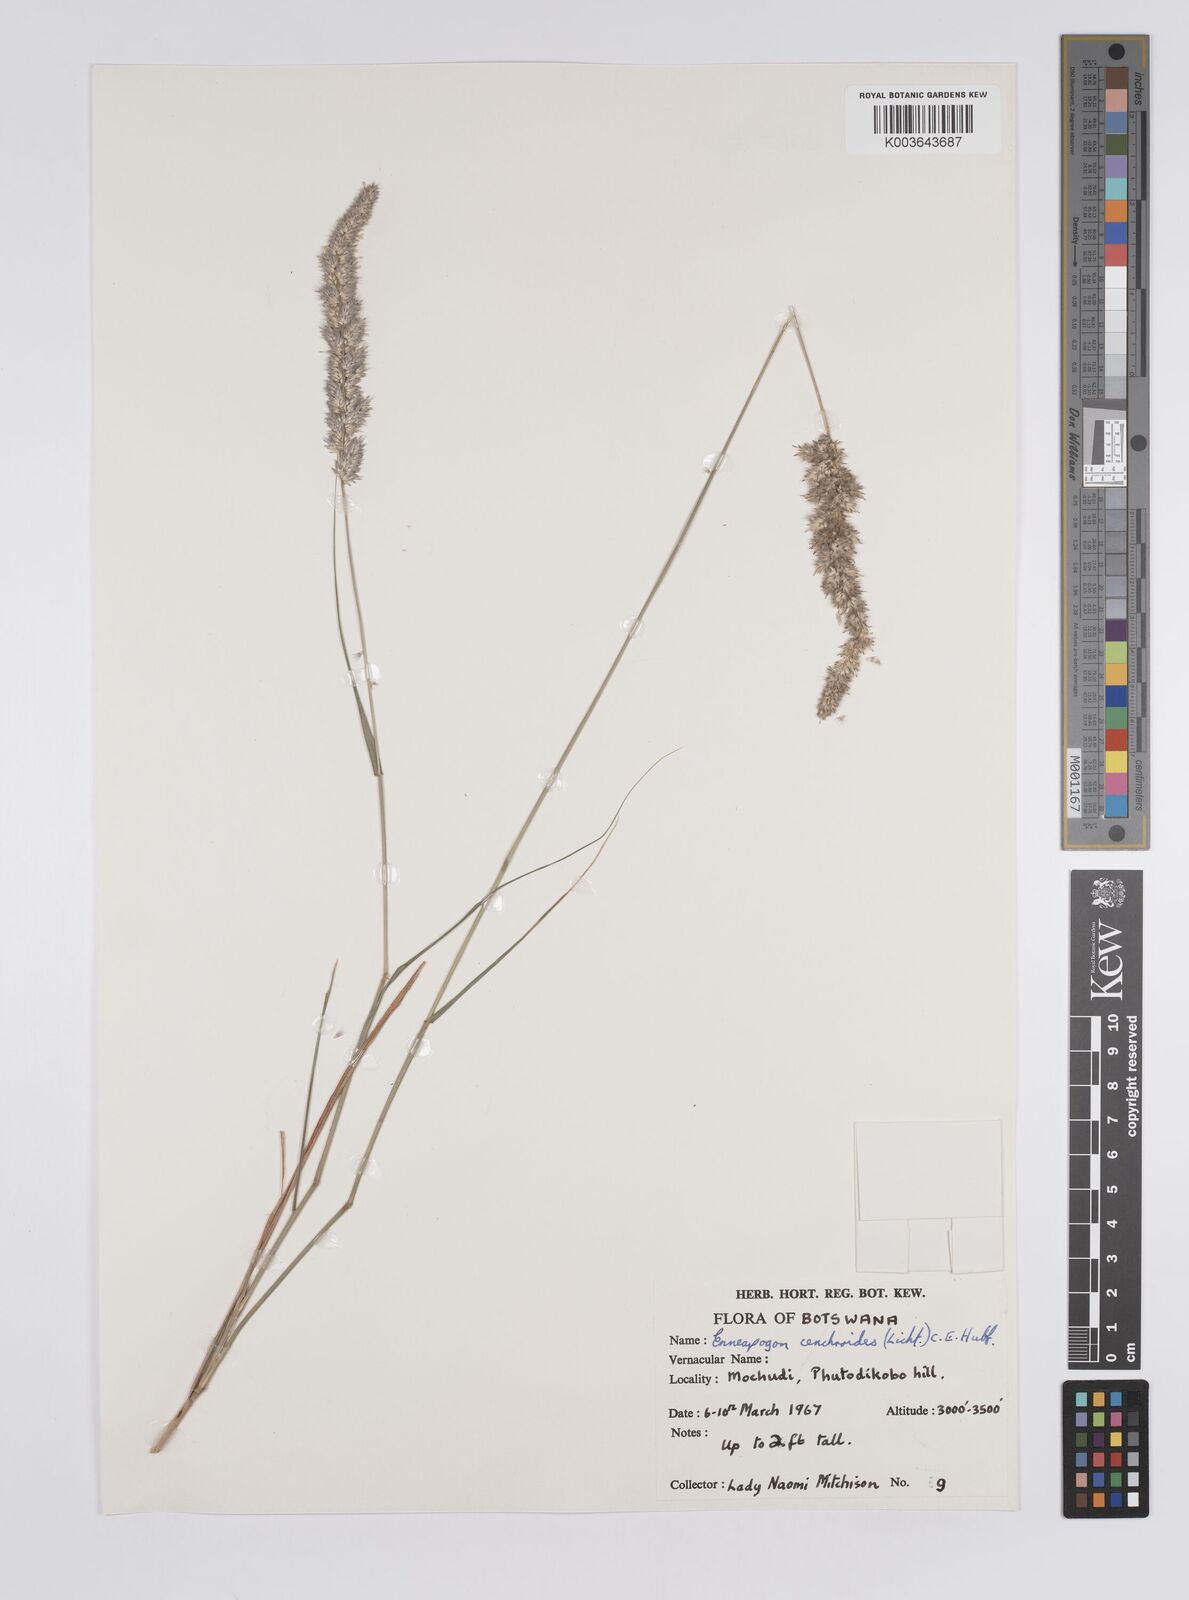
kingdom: Plantae
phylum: Tracheophyta
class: Liliopsida
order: Poales
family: Poaceae
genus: Enneapogon
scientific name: Enneapogon cenchroides
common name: Soft feather pappusgrass
